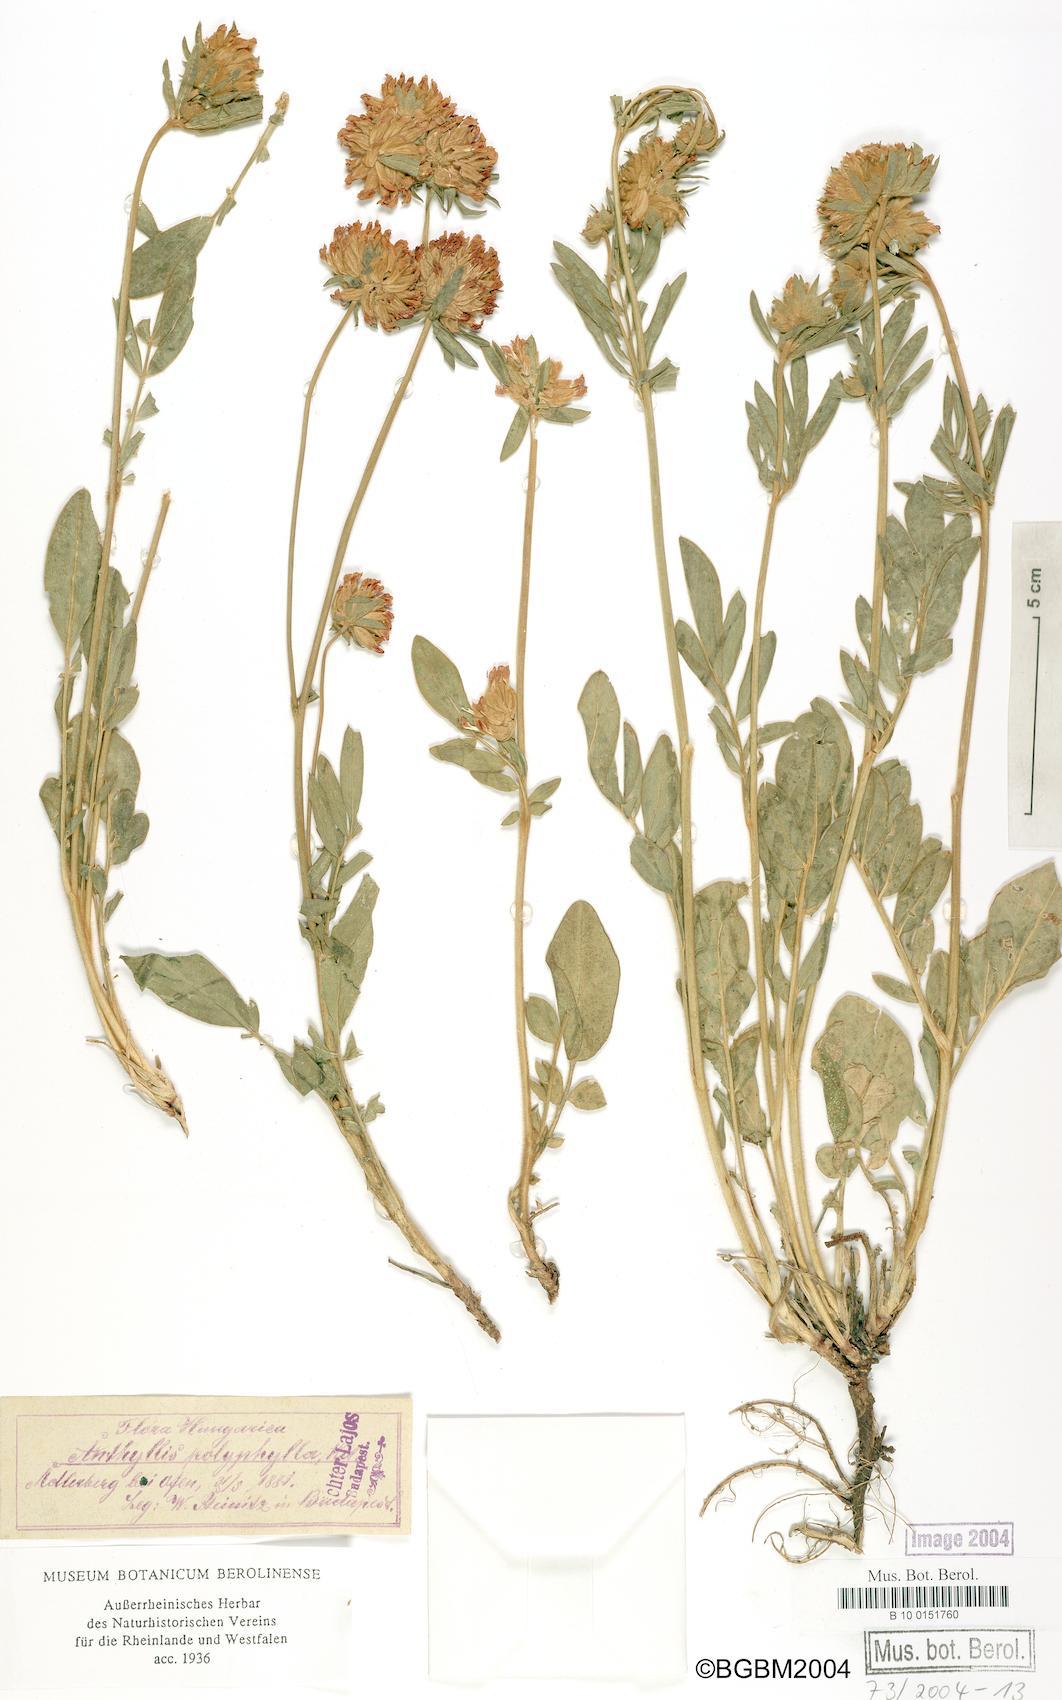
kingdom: Plantae
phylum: Tracheophyta
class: Magnoliopsida
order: Fabales
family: Fabaceae
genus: Anthyllis
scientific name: Anthyllis vulneraria
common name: Kidney vetch
